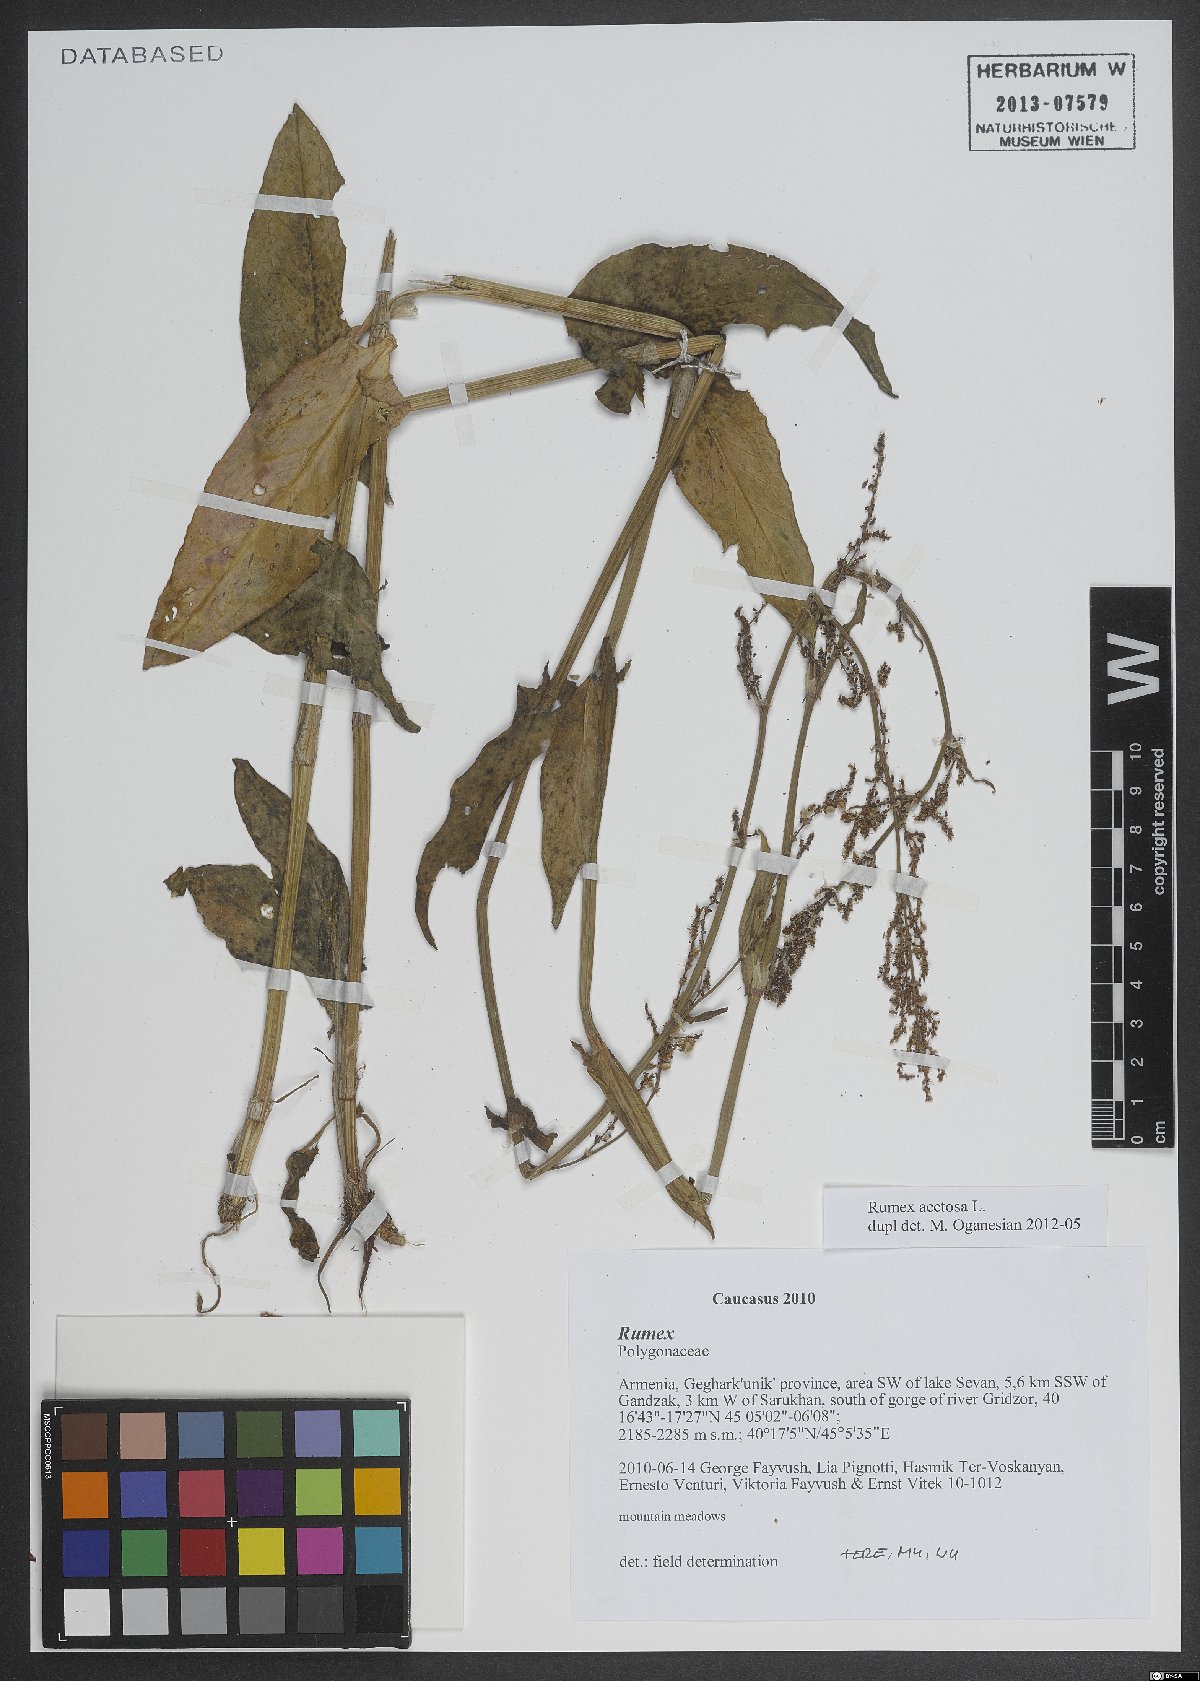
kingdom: Plantae
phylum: Tracheophyta
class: Magnoliopsida
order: Caryophyllales
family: Polygonaceae
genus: Rumex
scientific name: Rumex acetosa
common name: Garden sorrel
